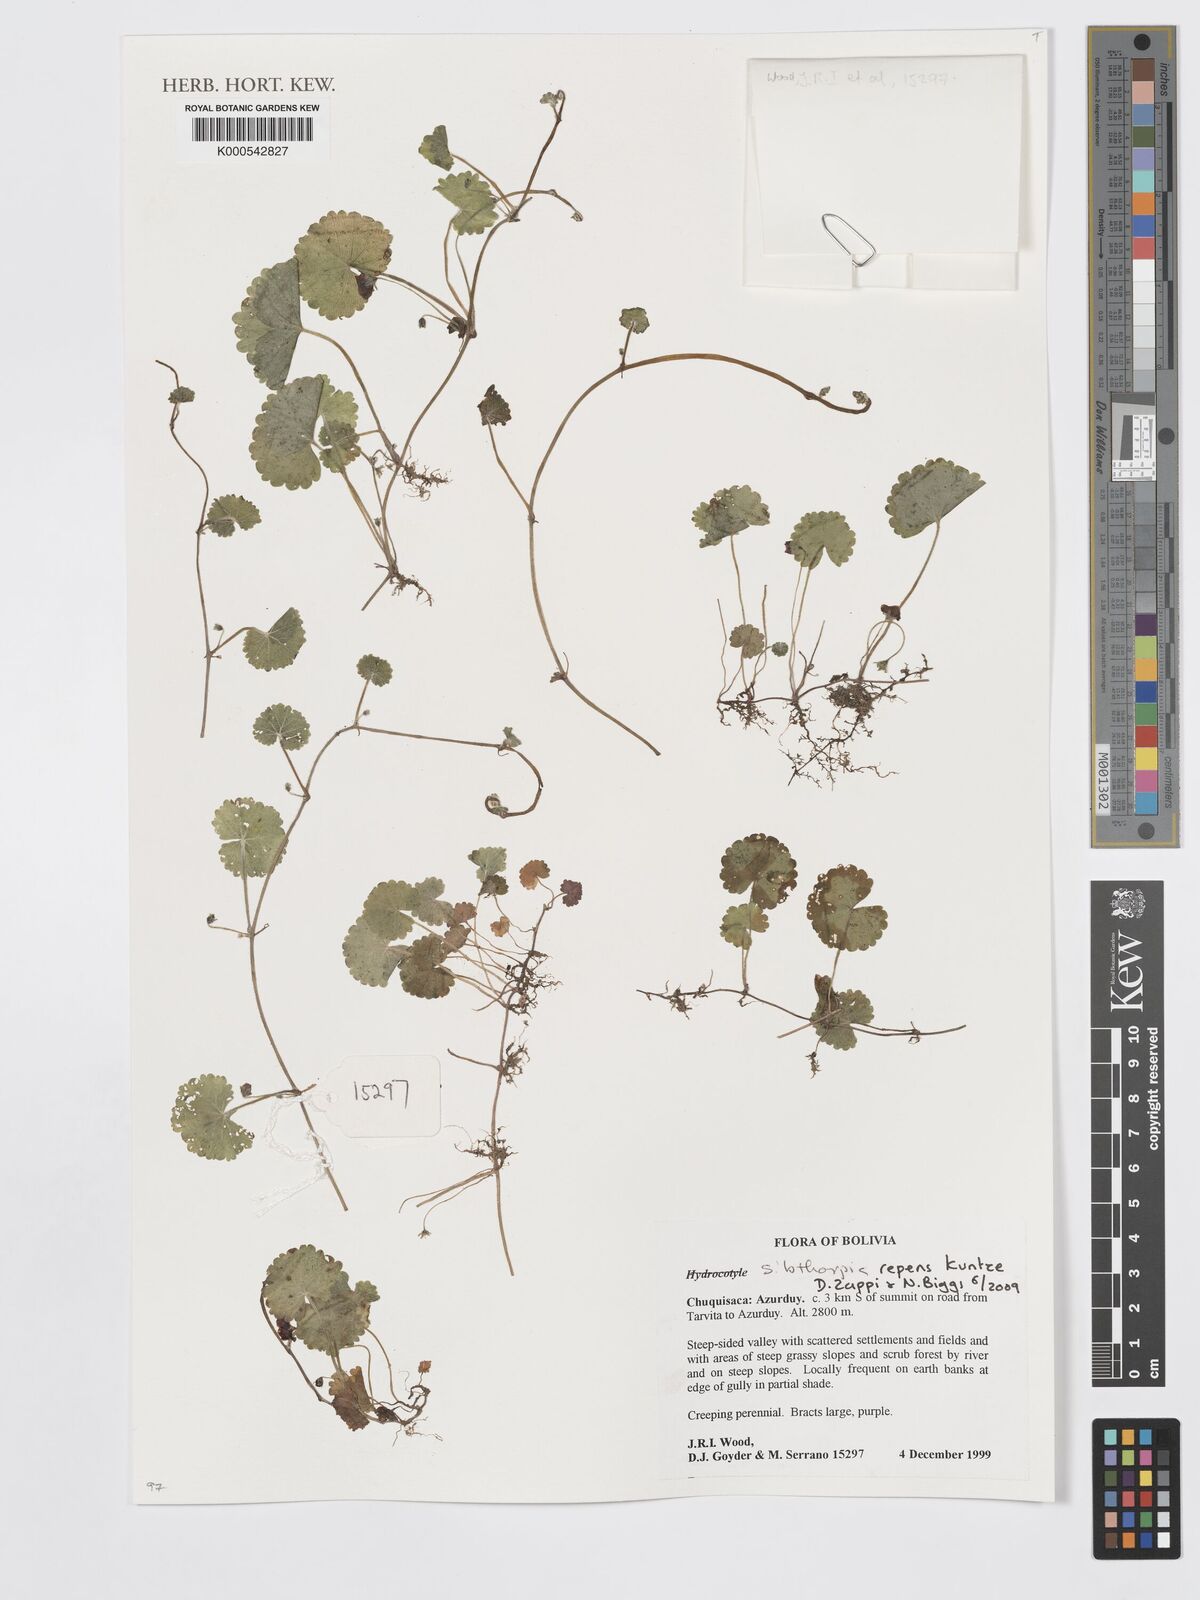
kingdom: Plantae
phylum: Tracheophyta
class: Magnoliopsida
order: Lamiales
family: Plantaginaceae
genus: Sibthorpia
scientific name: Sibthorpia repens
